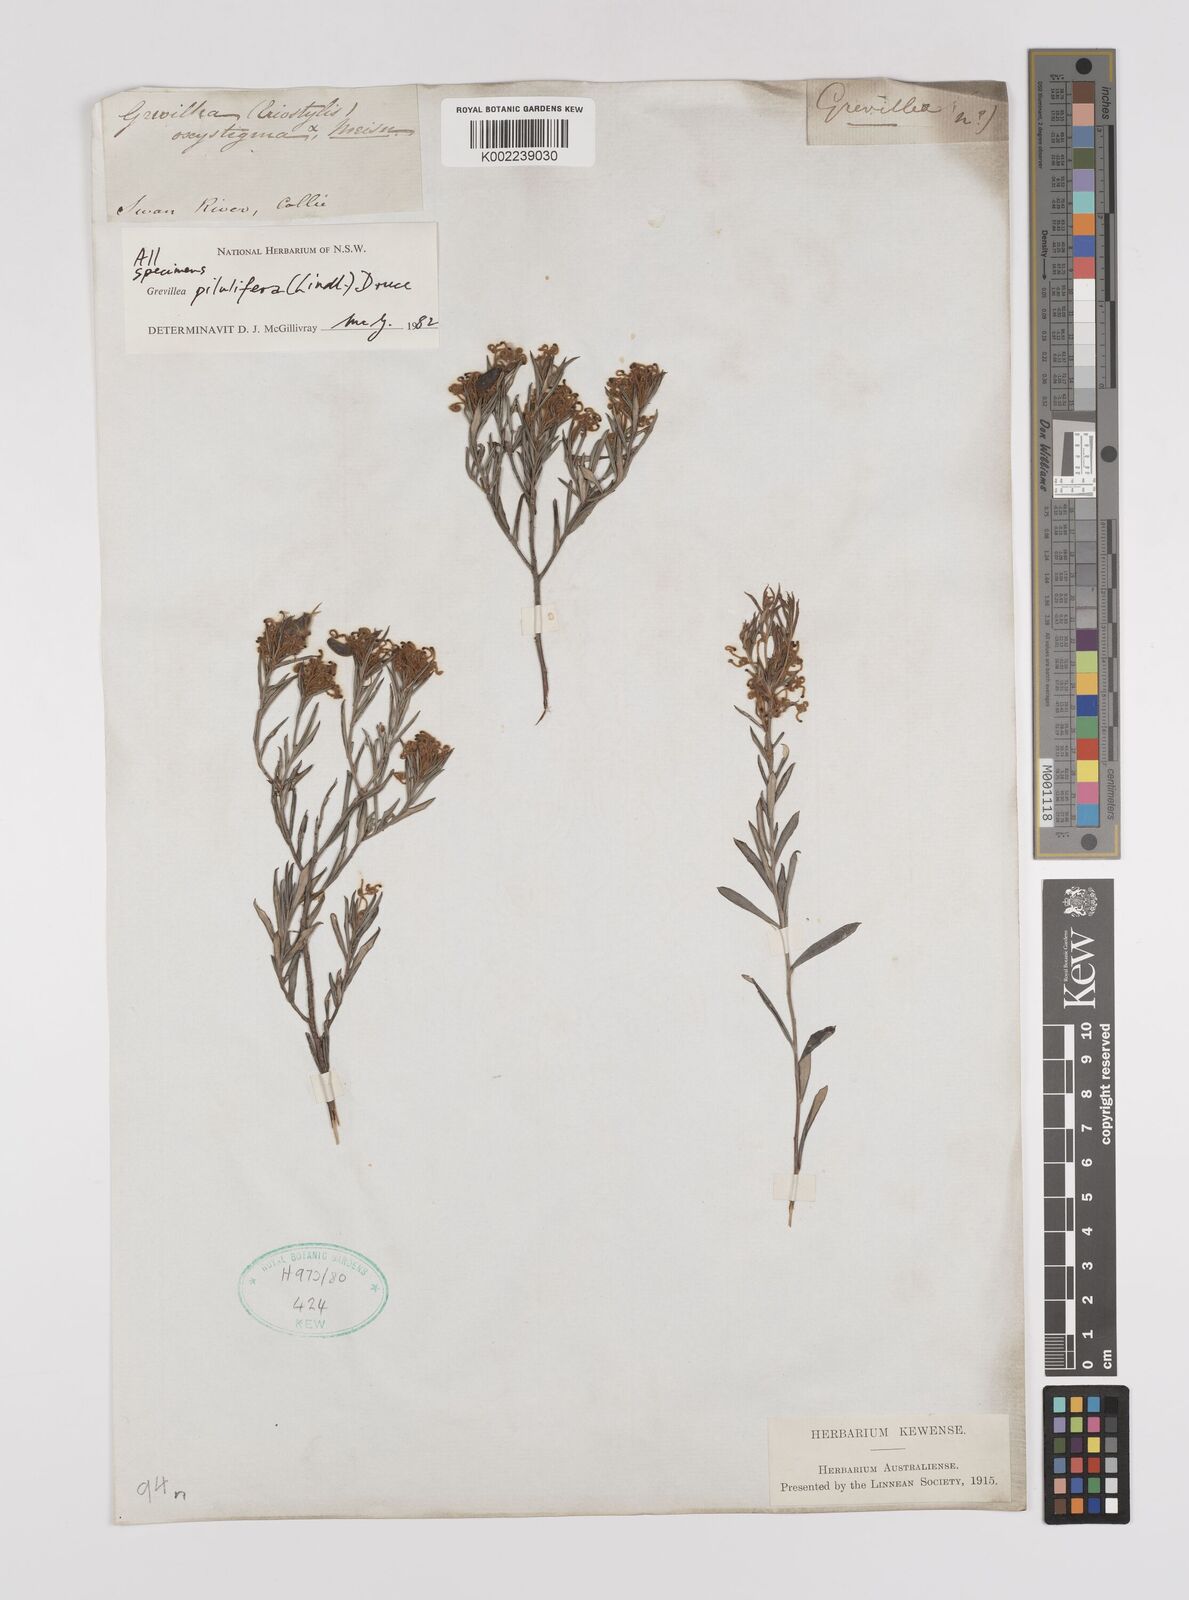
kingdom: Plantae
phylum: Tracheophyta
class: Magnoliopsida
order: Proteales
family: Proteaceae
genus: Grevillea
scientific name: Grevillea pilulifera
